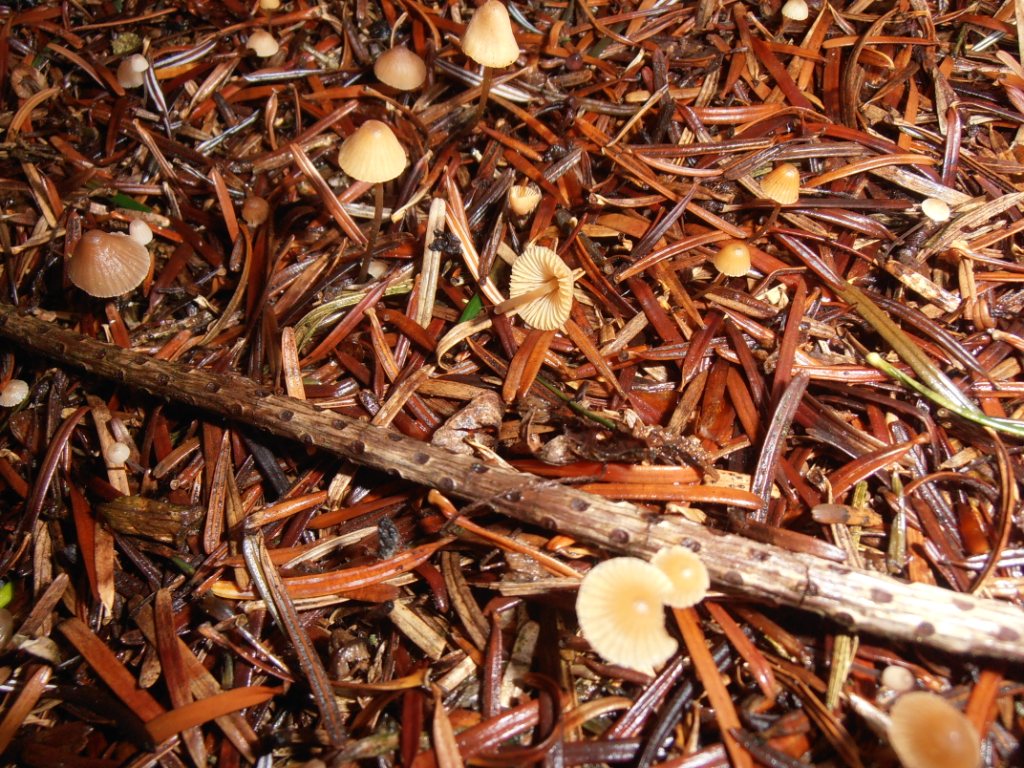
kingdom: Fungi
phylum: Basidiomycota
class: Agaricomycetes
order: Agaricales
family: Mycenaceae
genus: Mycena
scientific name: Mycena leptocephala
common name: klor-huesvamp
